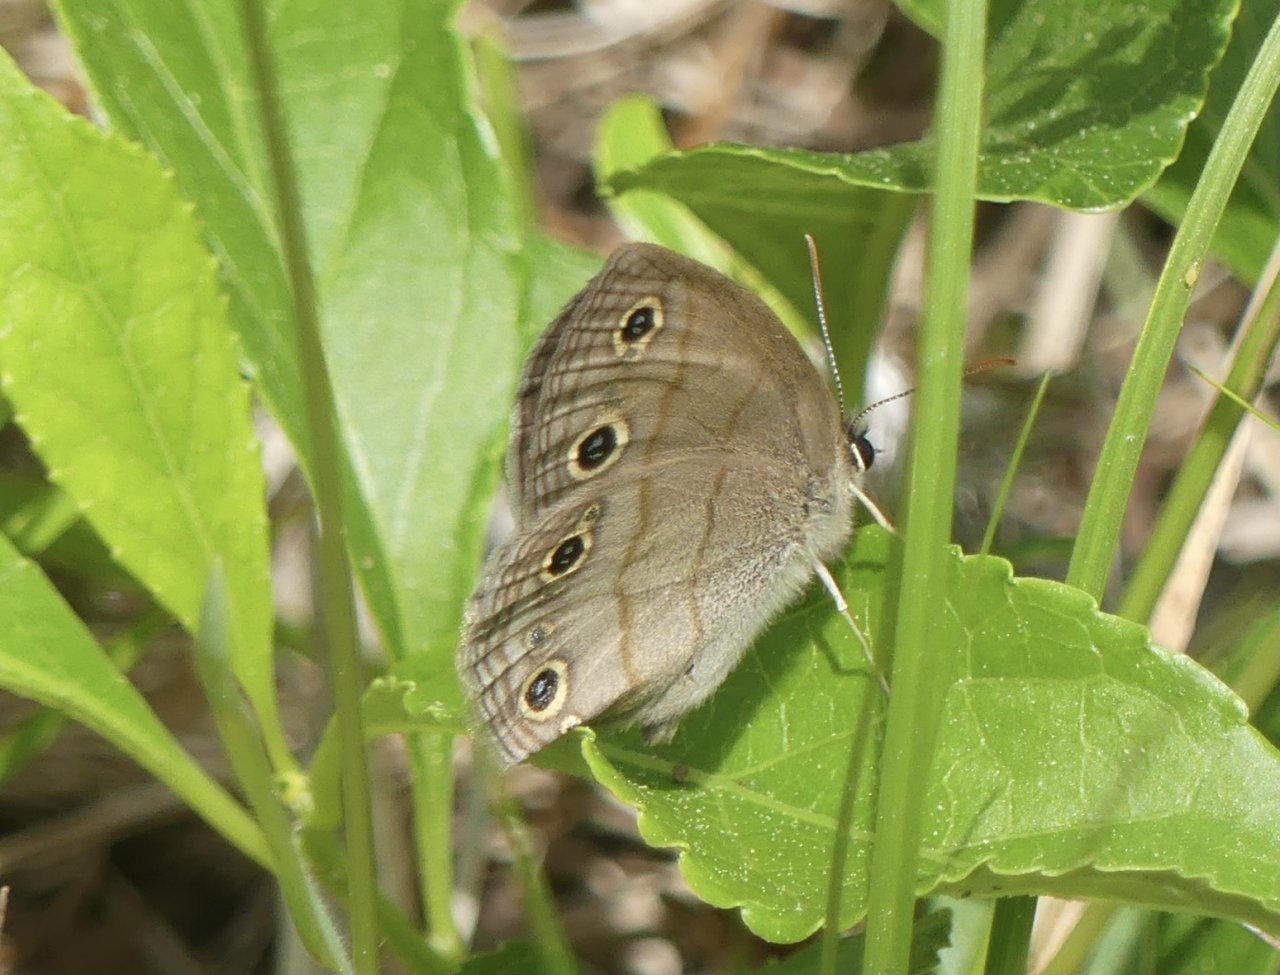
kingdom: Animalia
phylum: Arthropoda
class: Insecta
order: Lepidoptera
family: Nymphalidae
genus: Euptychia
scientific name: Euptychia cymela
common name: Little Wood Satyr
